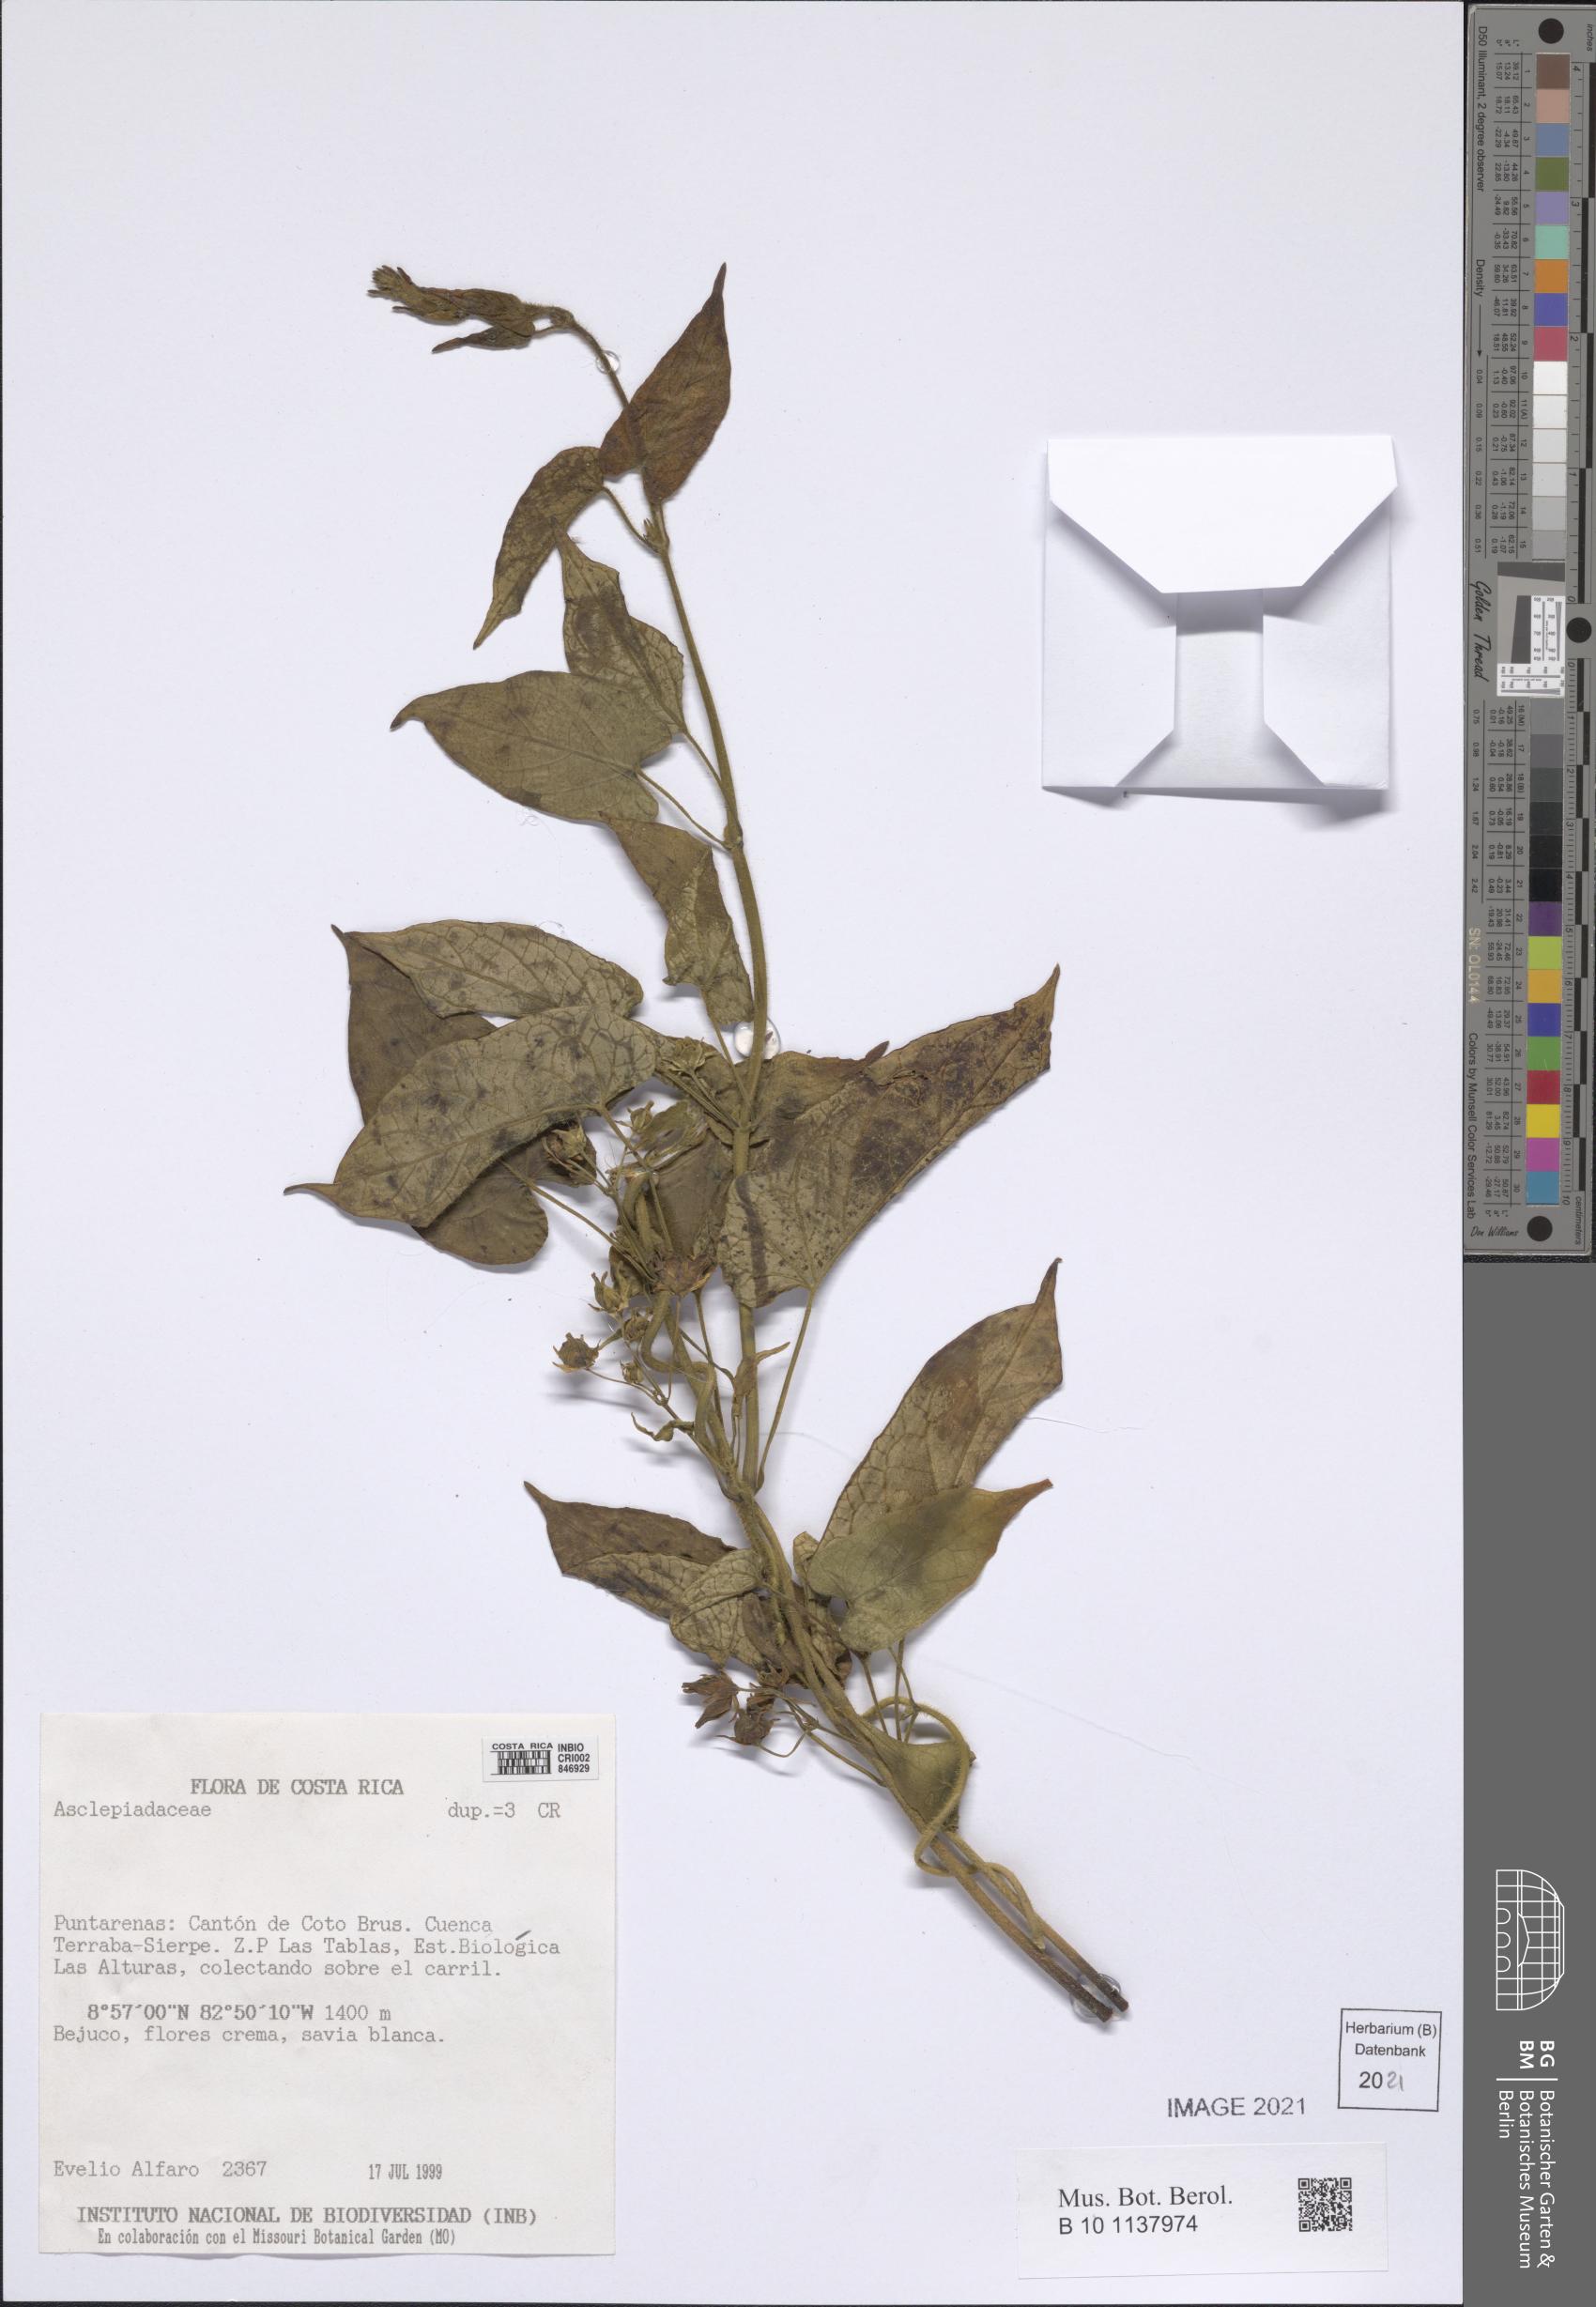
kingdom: Plantae
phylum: Tracheophyta
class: Magnoliopsida
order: Gentianales
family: Apocynaceae
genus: Gonolobus
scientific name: Gonolobus edulis
